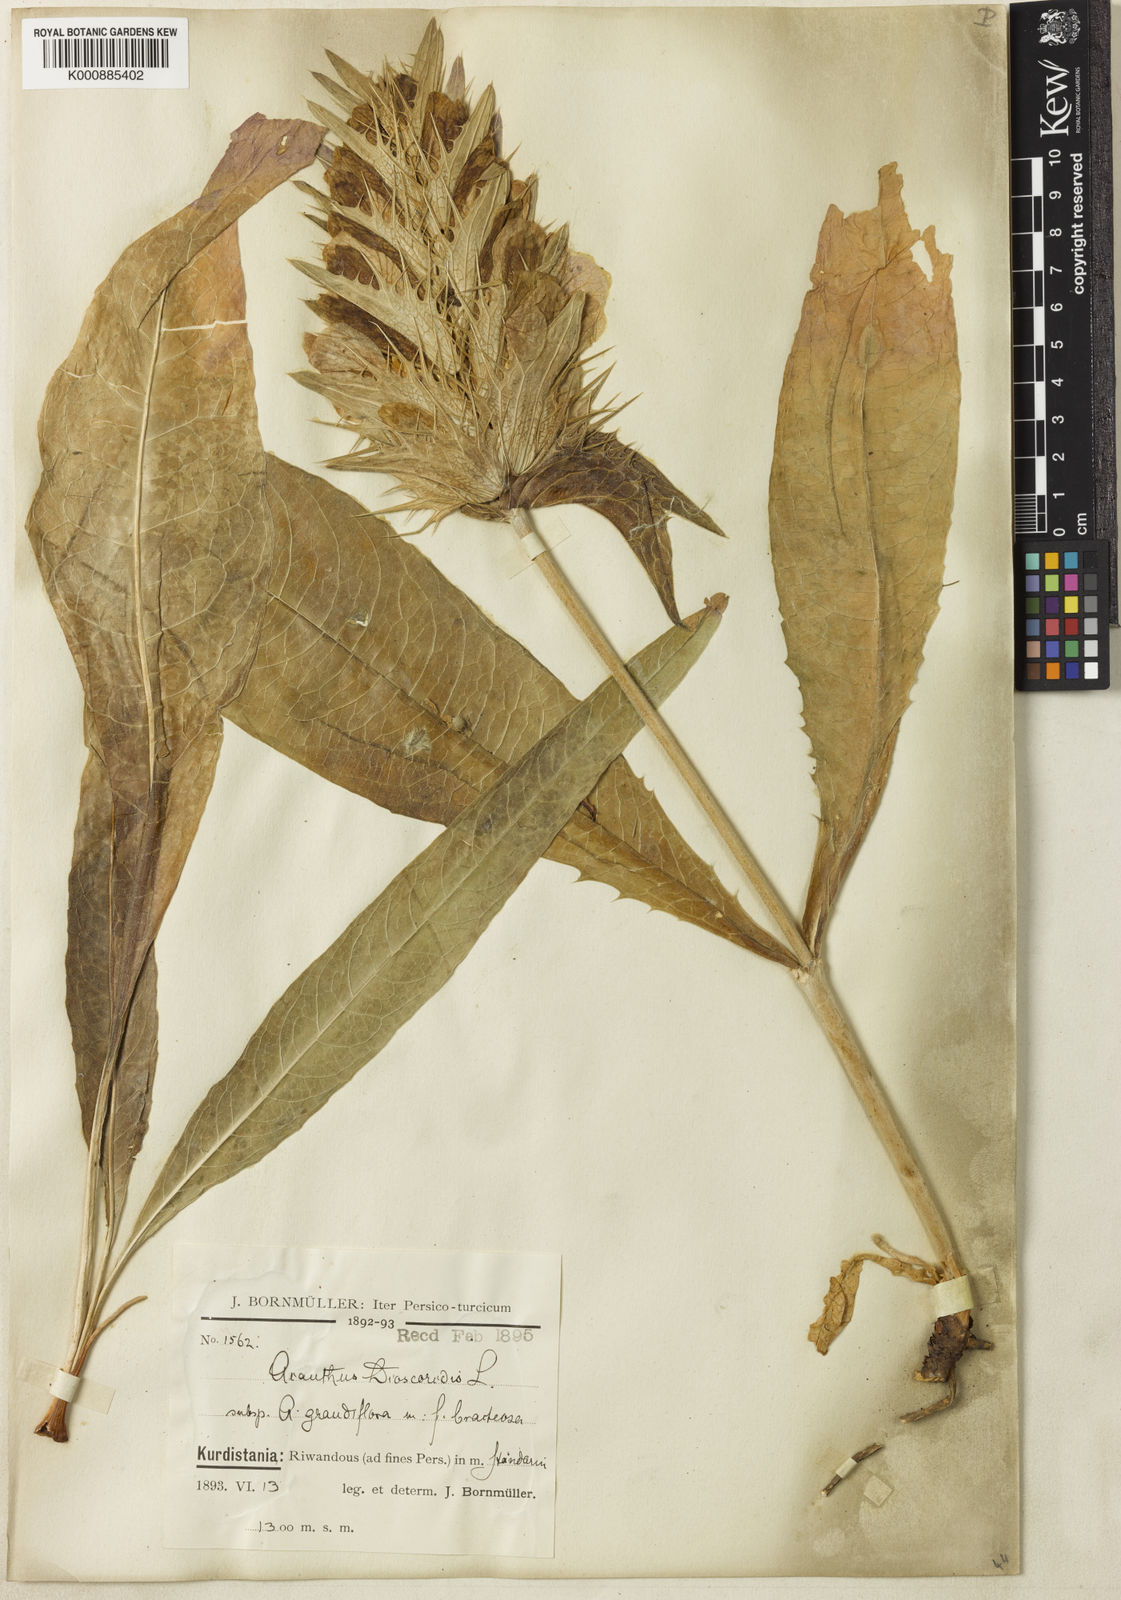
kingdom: Plantae
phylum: Tracheophyta
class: Magnoliopsida
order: Lamiales
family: Acanthaceae
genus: Acanthus
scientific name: Acanthus dioscoridis
